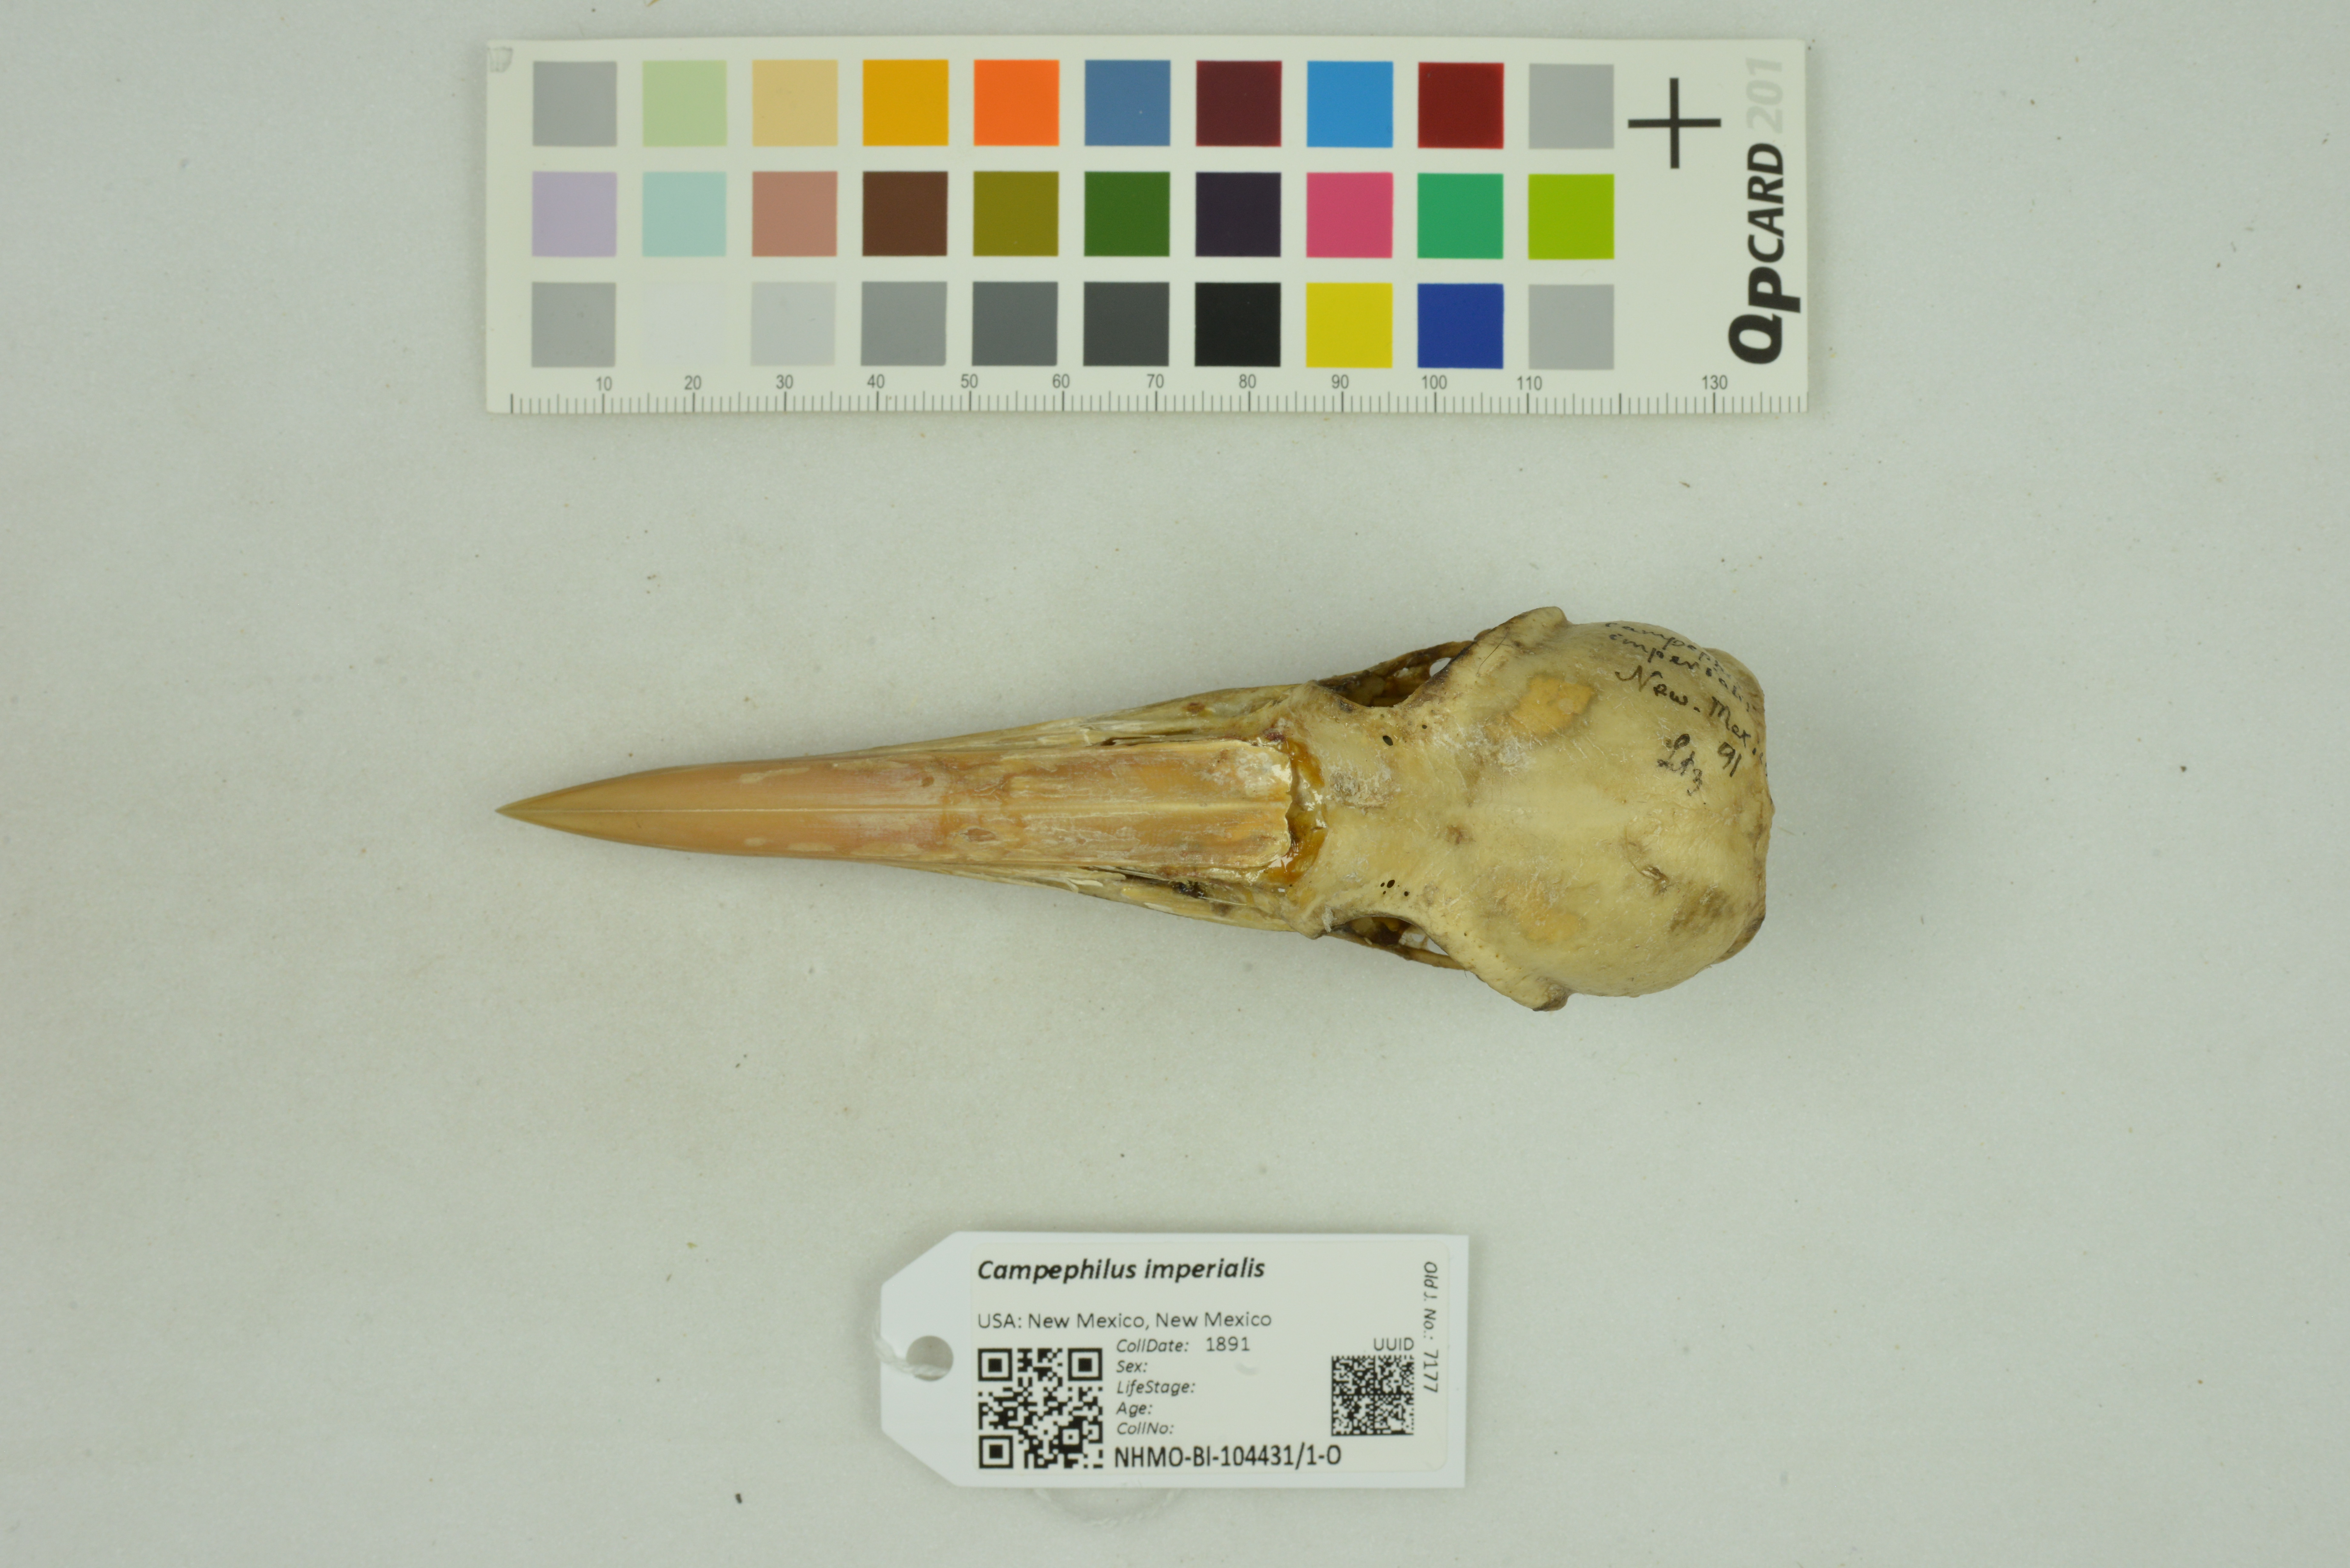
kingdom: Animalia
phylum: Chordata
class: Aves
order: Piciformes
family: Picidae
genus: Campephilus
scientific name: Campephilus imperialis
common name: Imperial woodpecker
